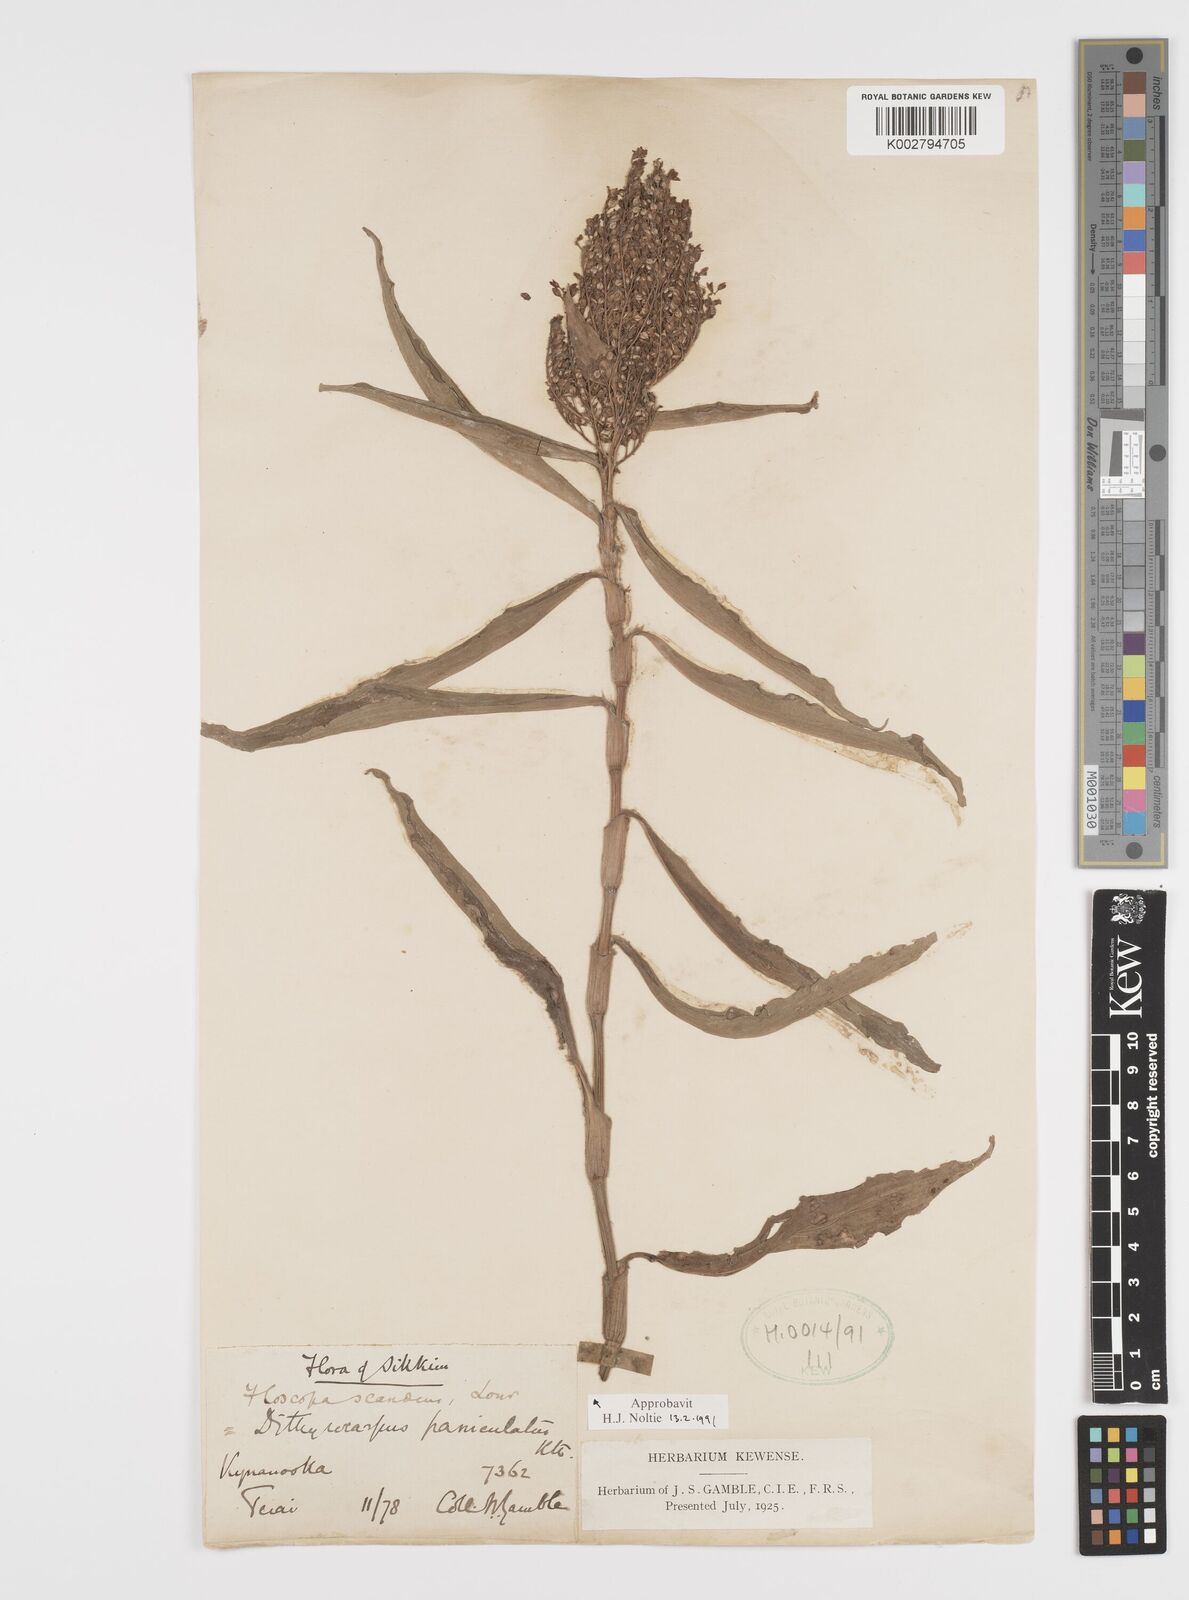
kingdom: Plantae
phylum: Tracheophyta
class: Liliopsida
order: Commelinales
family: Commelinaceae
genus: Floscopa
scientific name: Floscopa scandens
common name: Climbing flower cup
